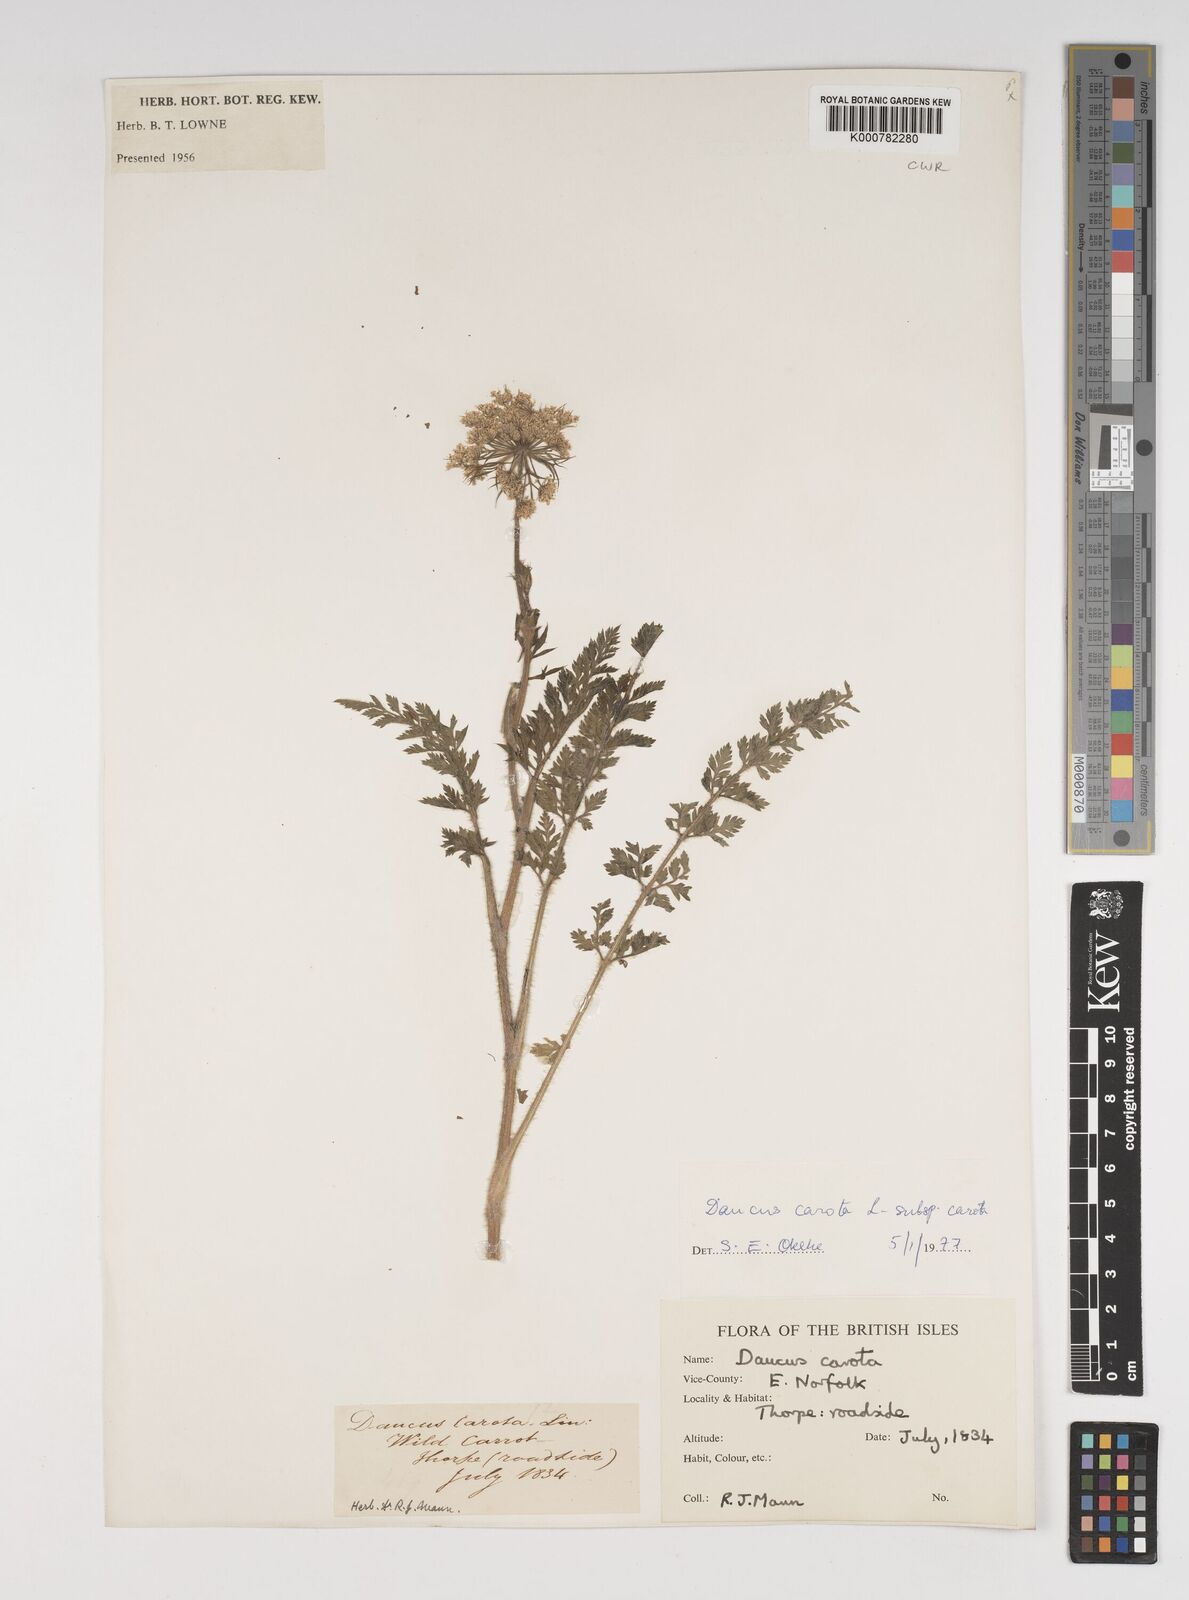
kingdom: Plantae
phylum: Tracheophyta
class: Magnoliopsida
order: Apiales
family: Apiaceae
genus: Daucus
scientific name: Daucus carota
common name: Wild carrot
